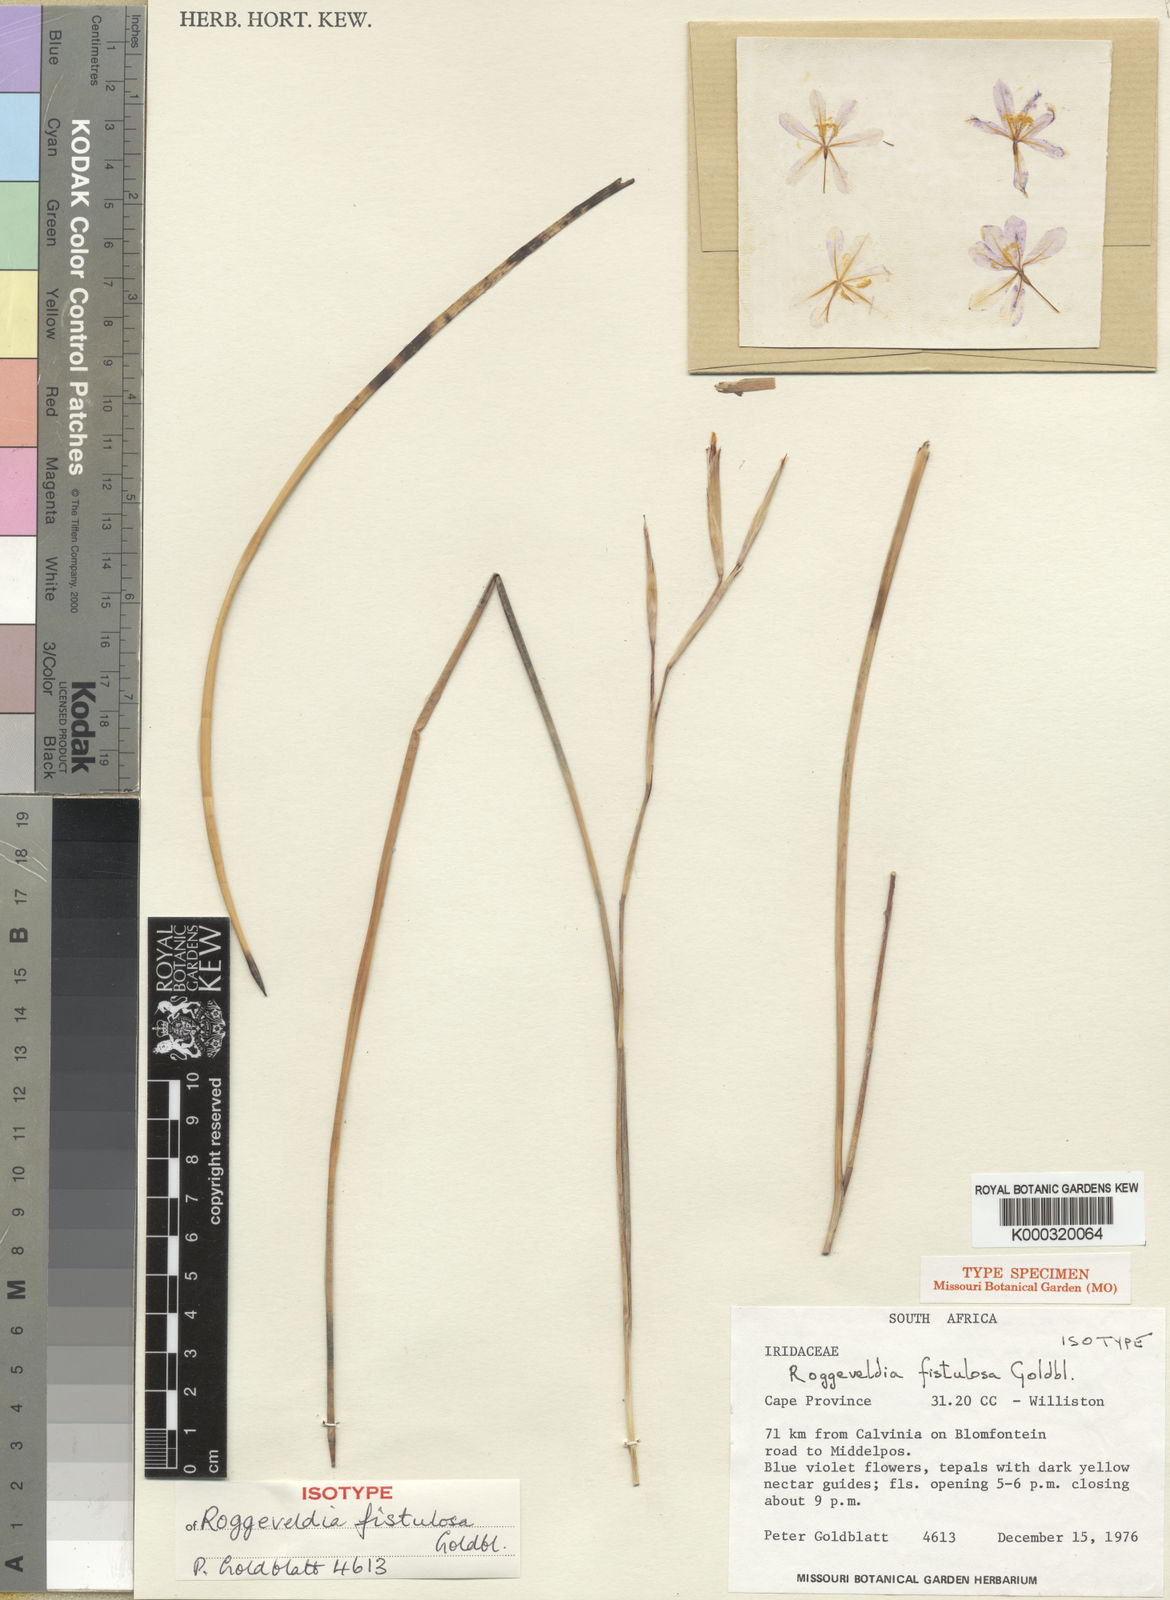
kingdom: Plantae
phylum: Tracheophyta
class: Liliopsida
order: Asparagales
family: Iridaceae
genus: Moraea
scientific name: Moraea fistulosa
